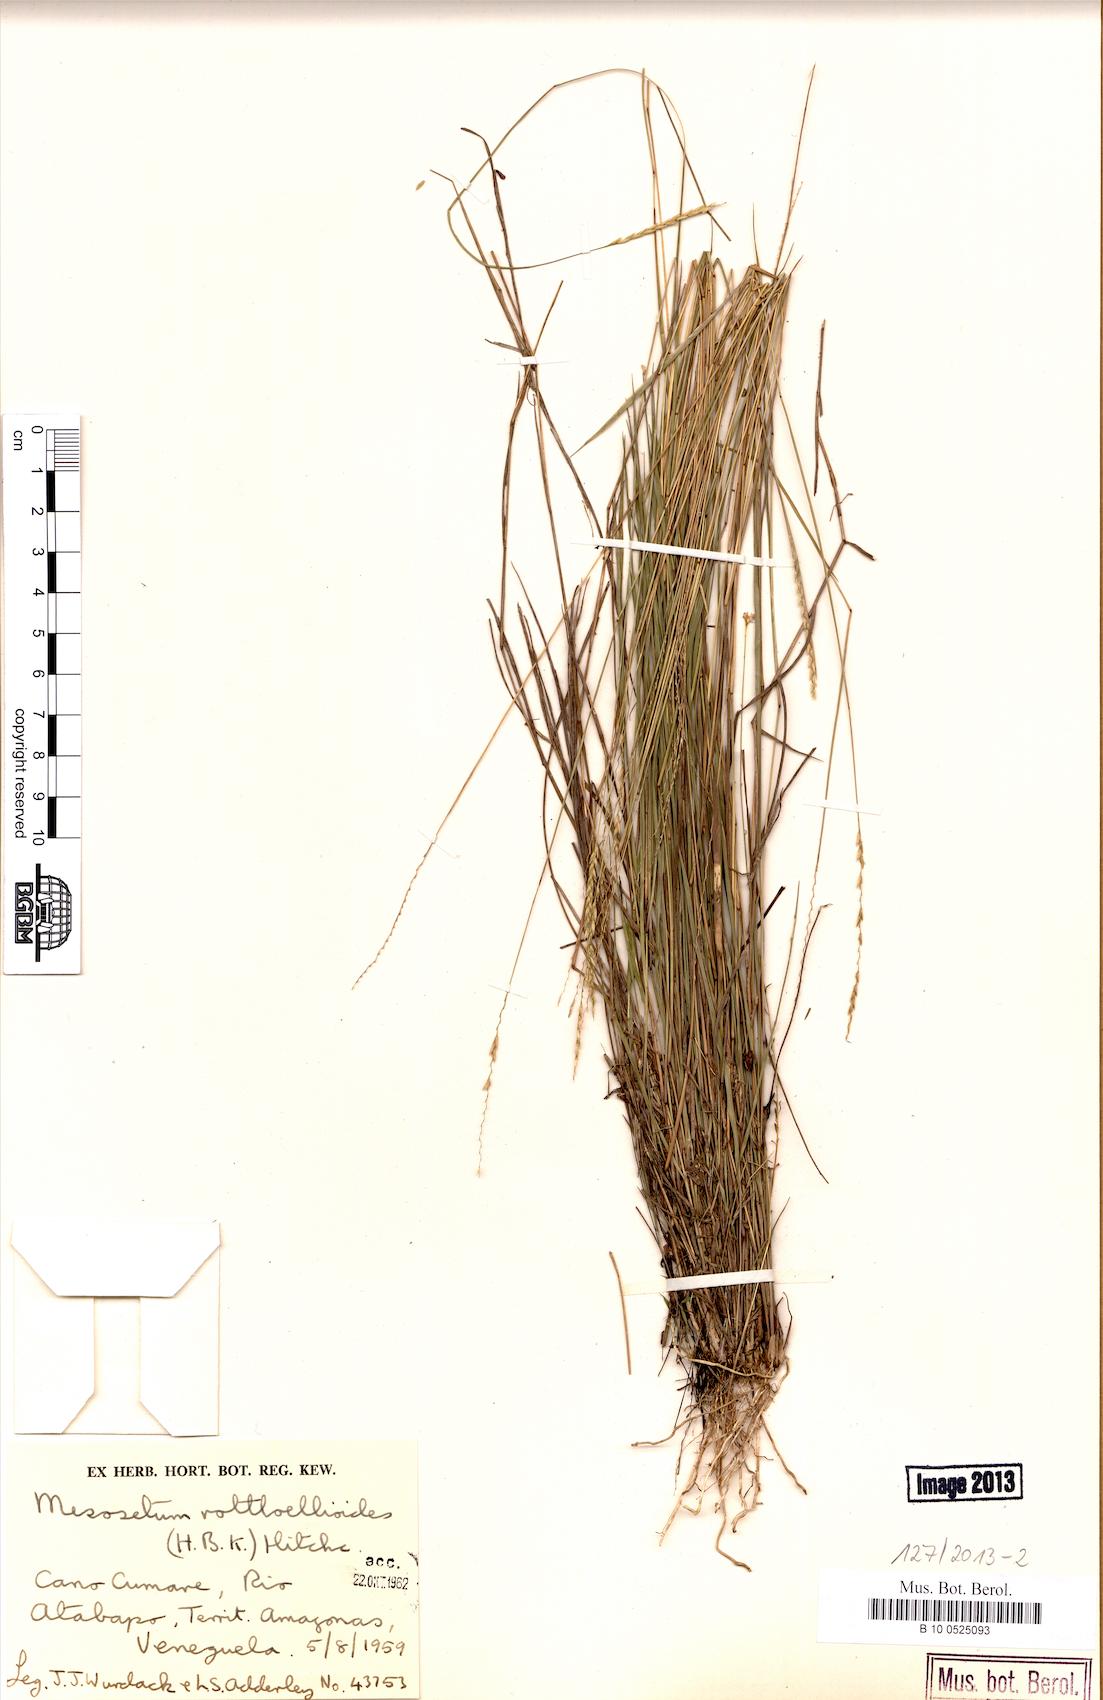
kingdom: Plantae
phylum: Tracheophyta
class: Liliopsida
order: Poales
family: Poaceae
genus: Mesosetum
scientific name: Mesosetum rottboellioides
